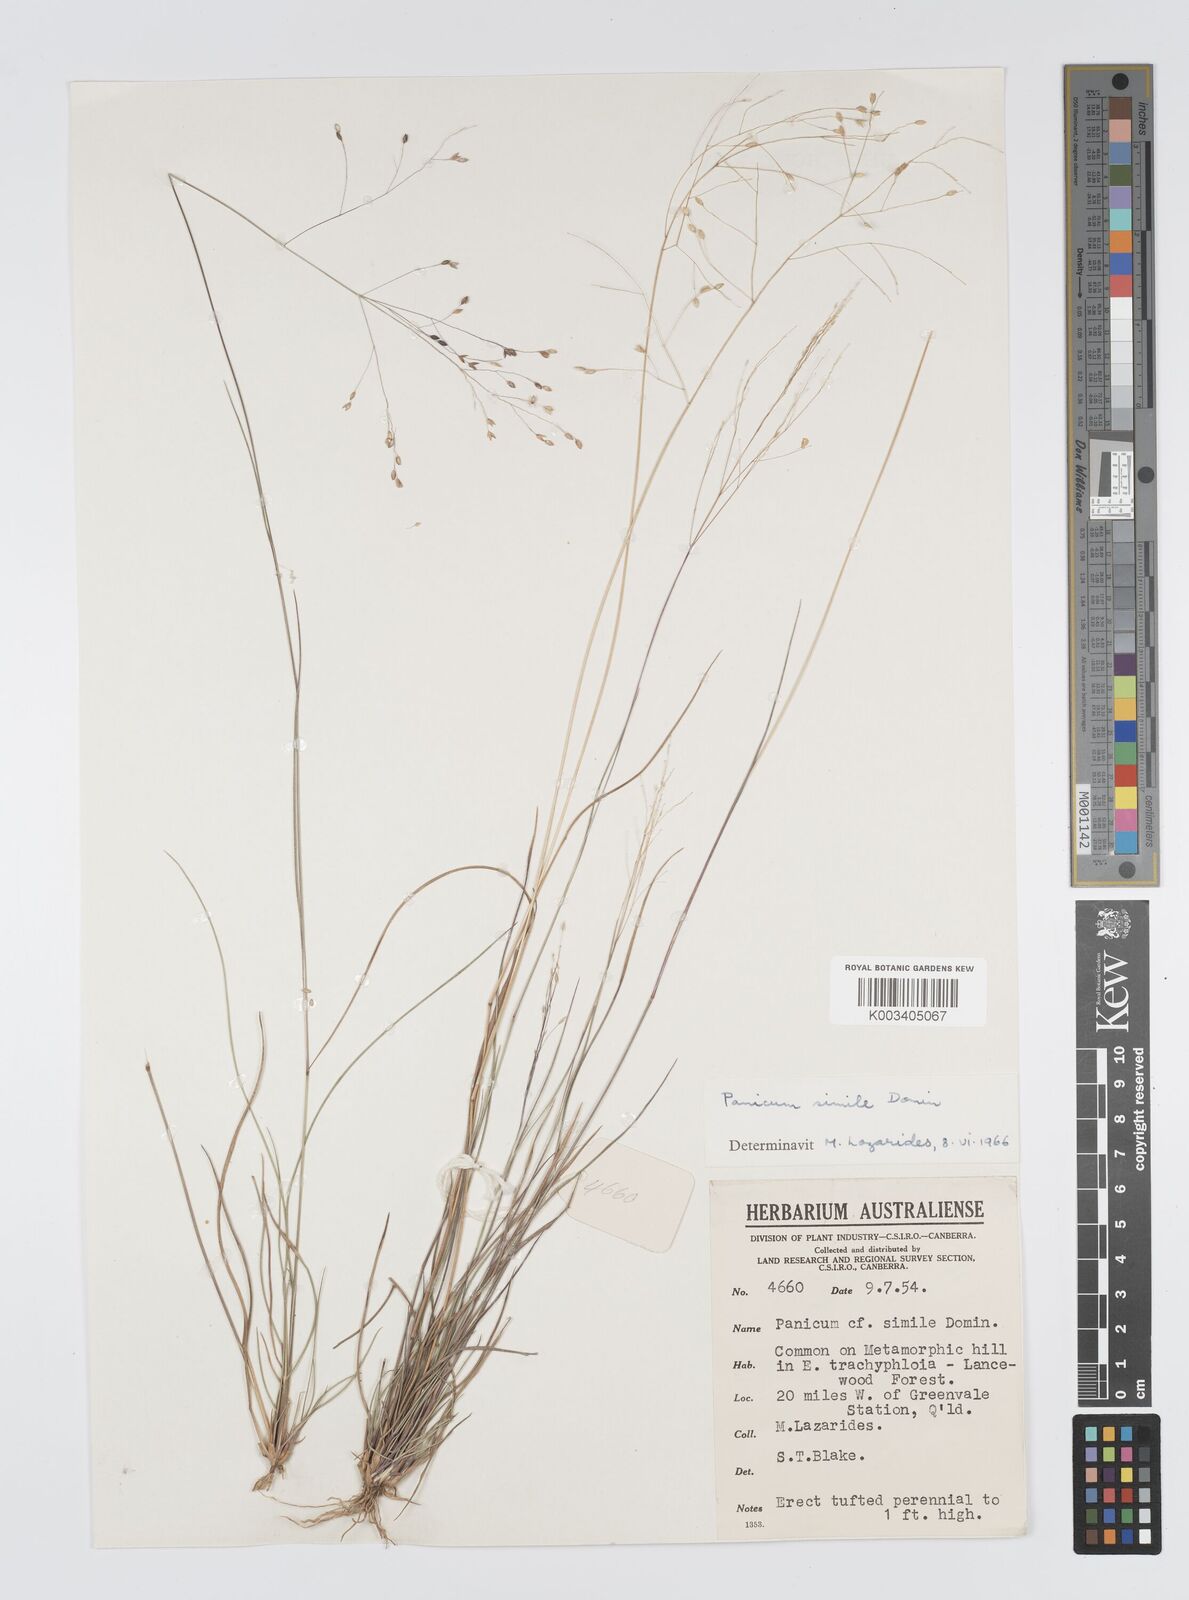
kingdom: Plantae
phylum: Tracheophyta
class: Liliopsida
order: Poales
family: Poaceae
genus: Panicum
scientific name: Panicum simile
